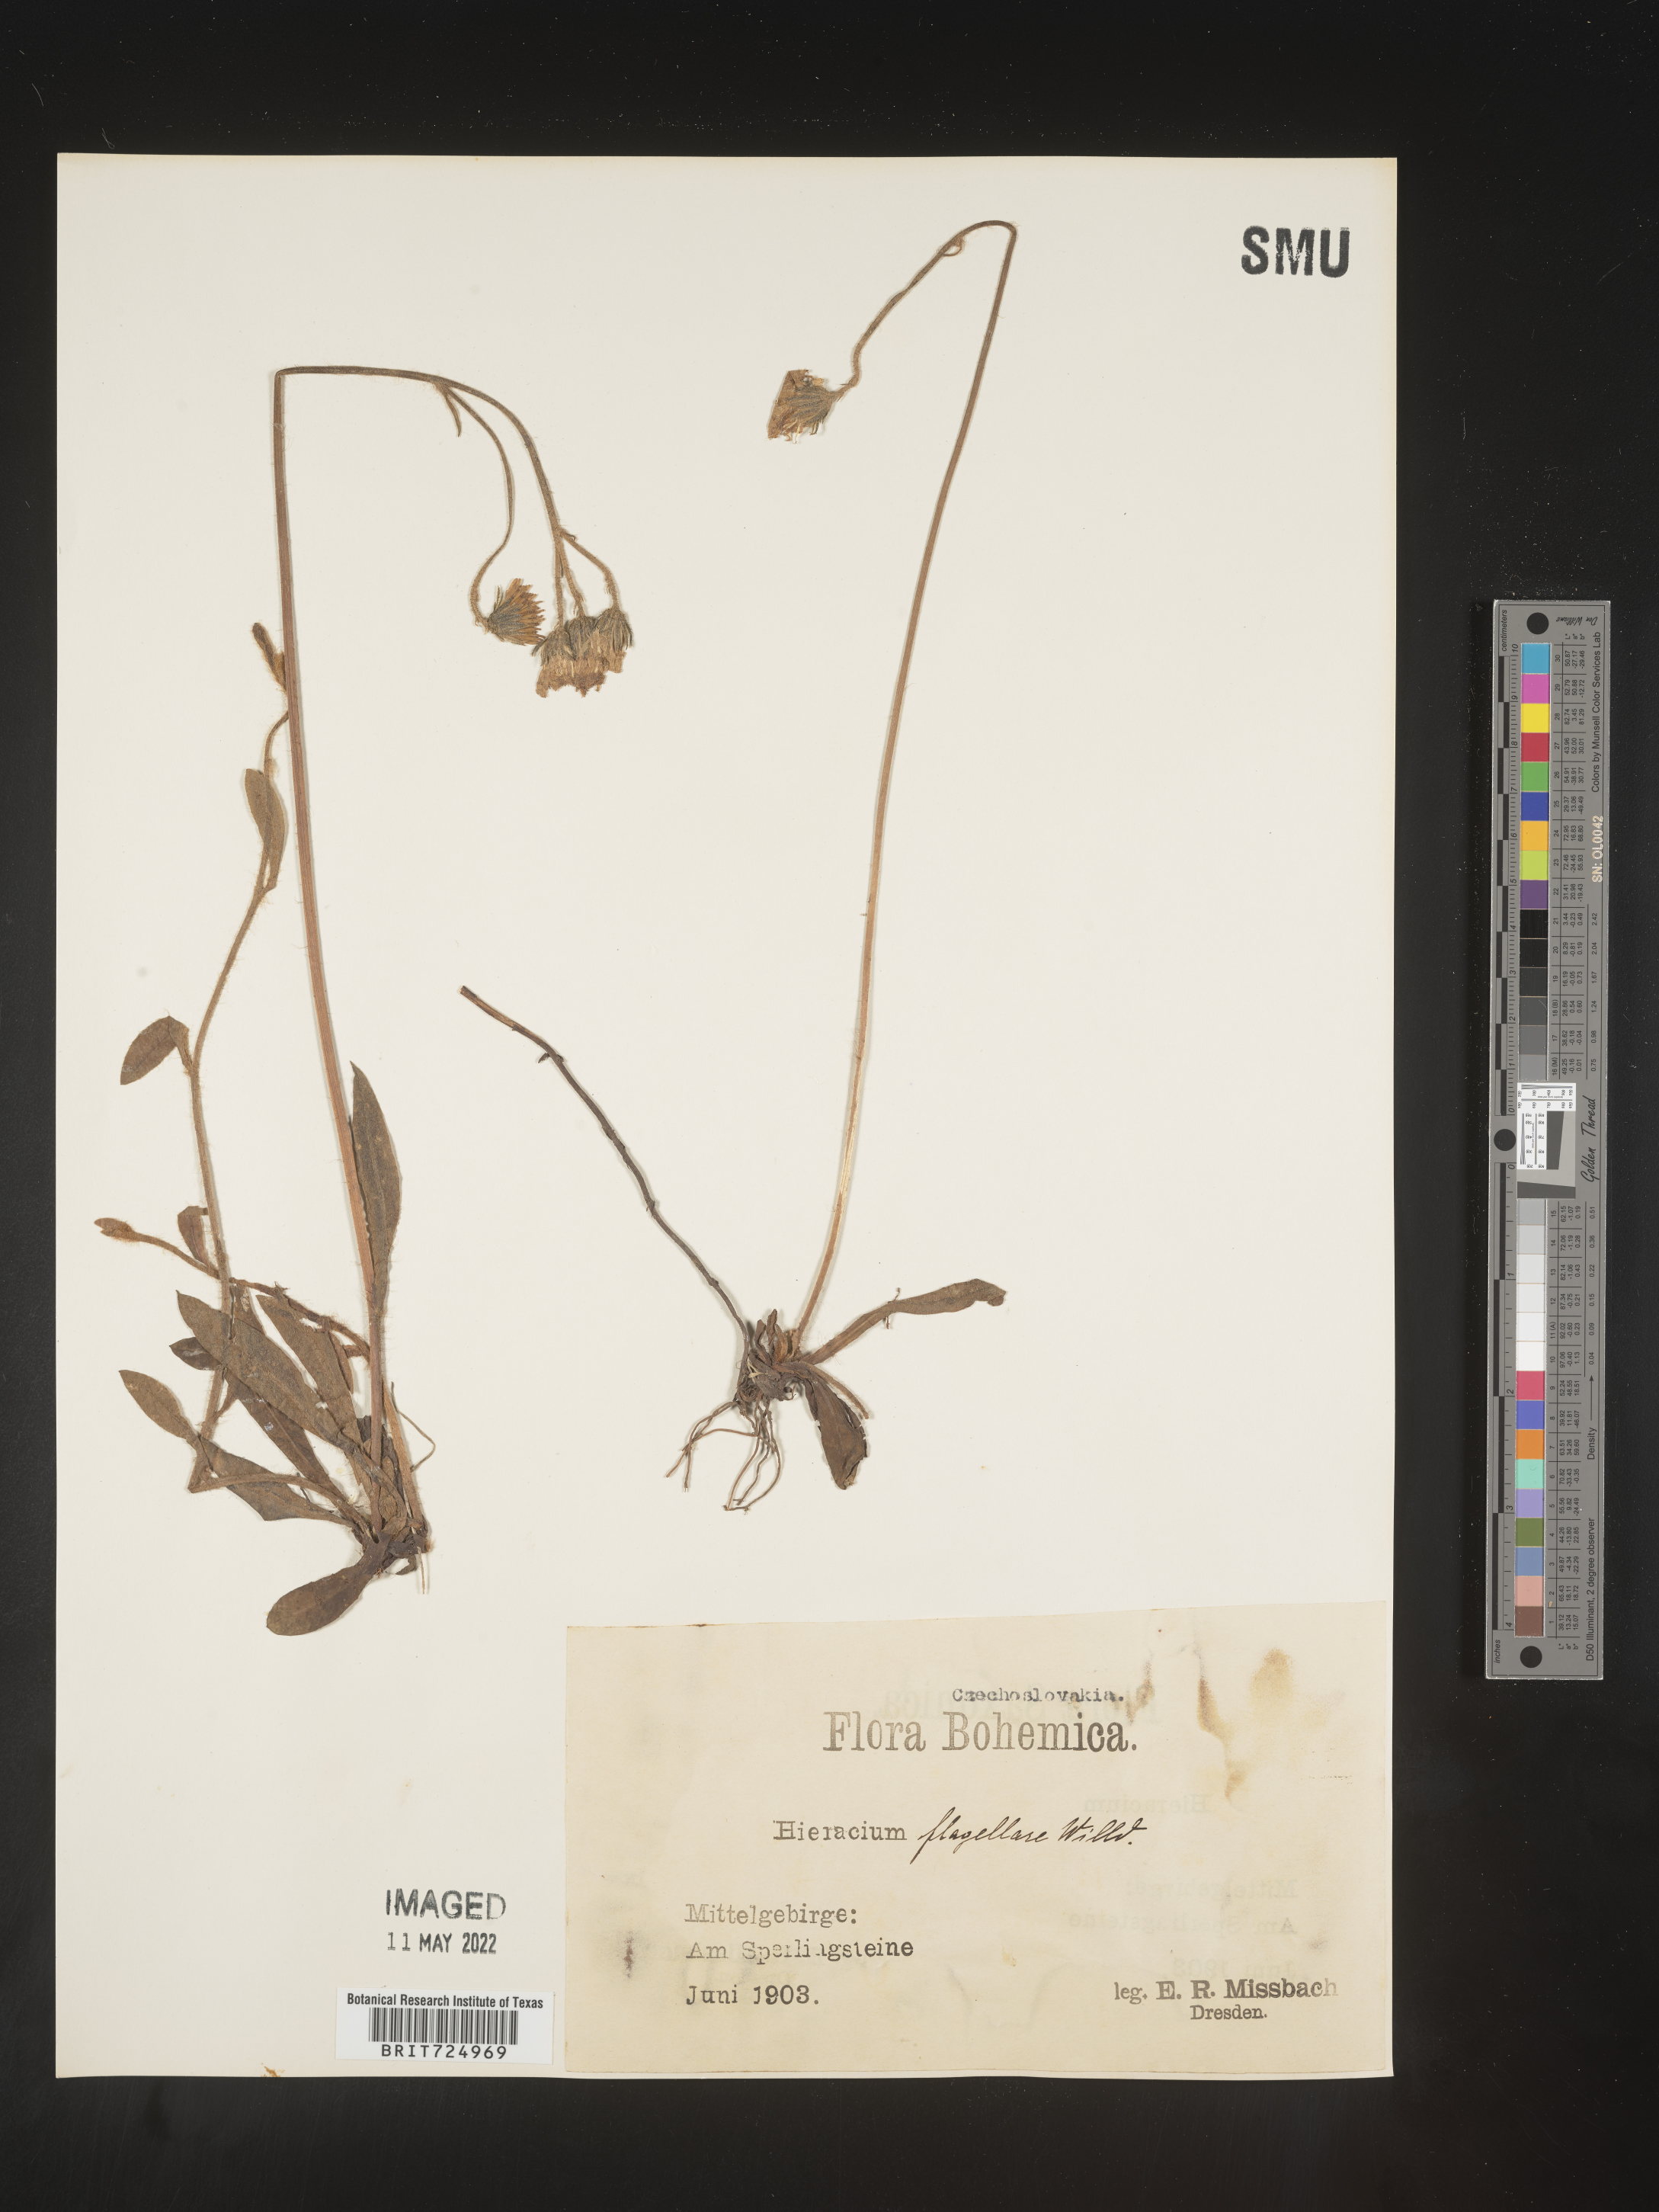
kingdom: Plantae
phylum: Tracheophyta
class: Magnoliopsida
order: Asterales
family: Asteraceae
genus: Hieracium
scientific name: Hieracium
